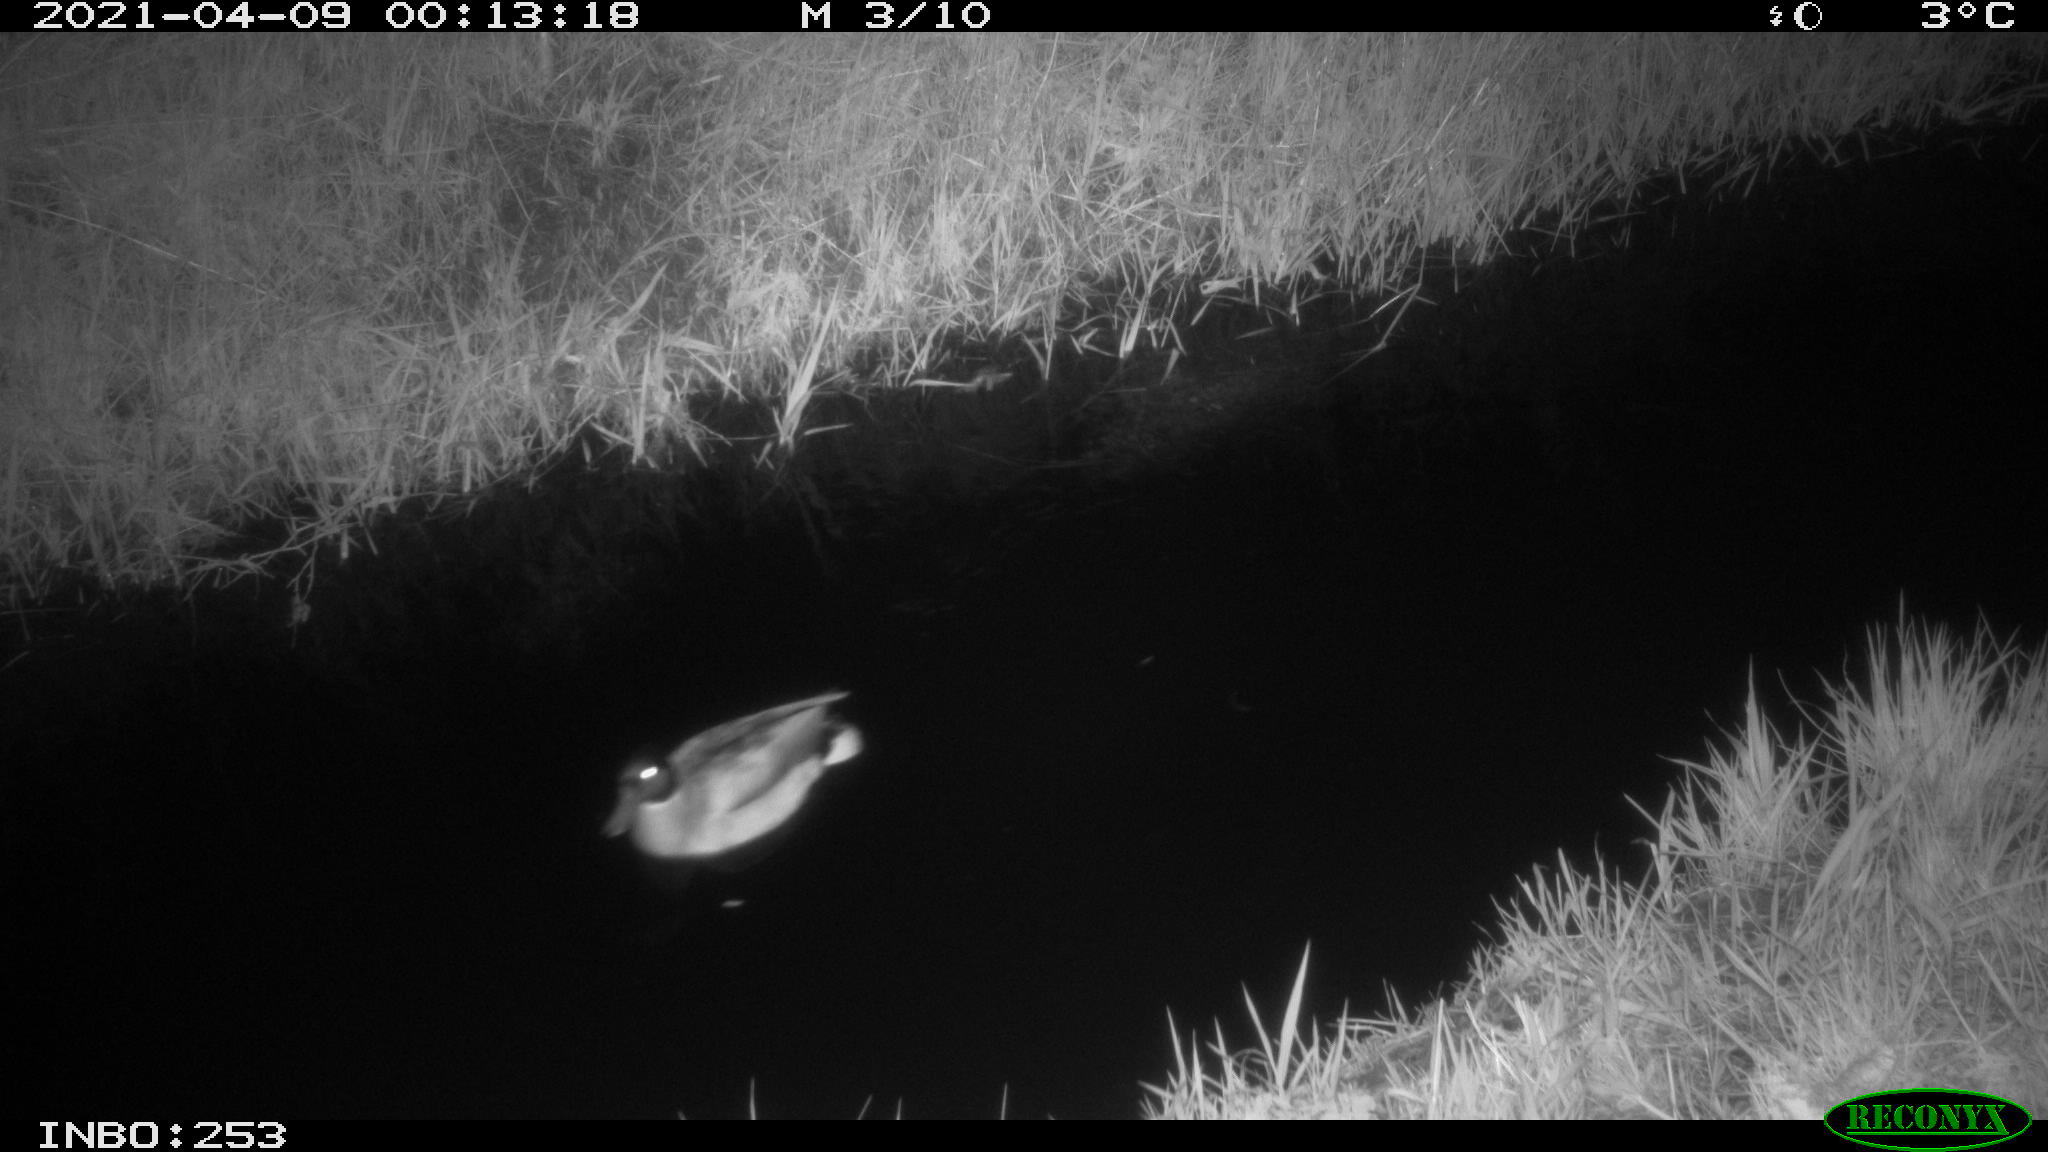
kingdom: Animalia
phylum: Chordata
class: Aves
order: Anseriformes
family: Anatidae
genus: Anas
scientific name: Anas platyrhynchos
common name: Mallard
